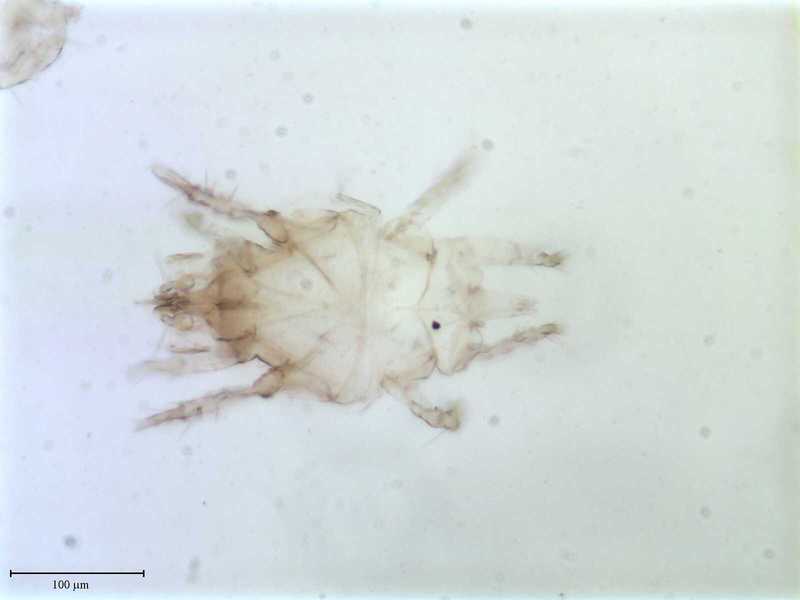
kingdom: Animalia
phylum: Arthropoda
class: Arachnida
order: Trombidiformes
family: Resinacaridae
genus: Resinacarus
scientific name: Resinacarus resinatus
